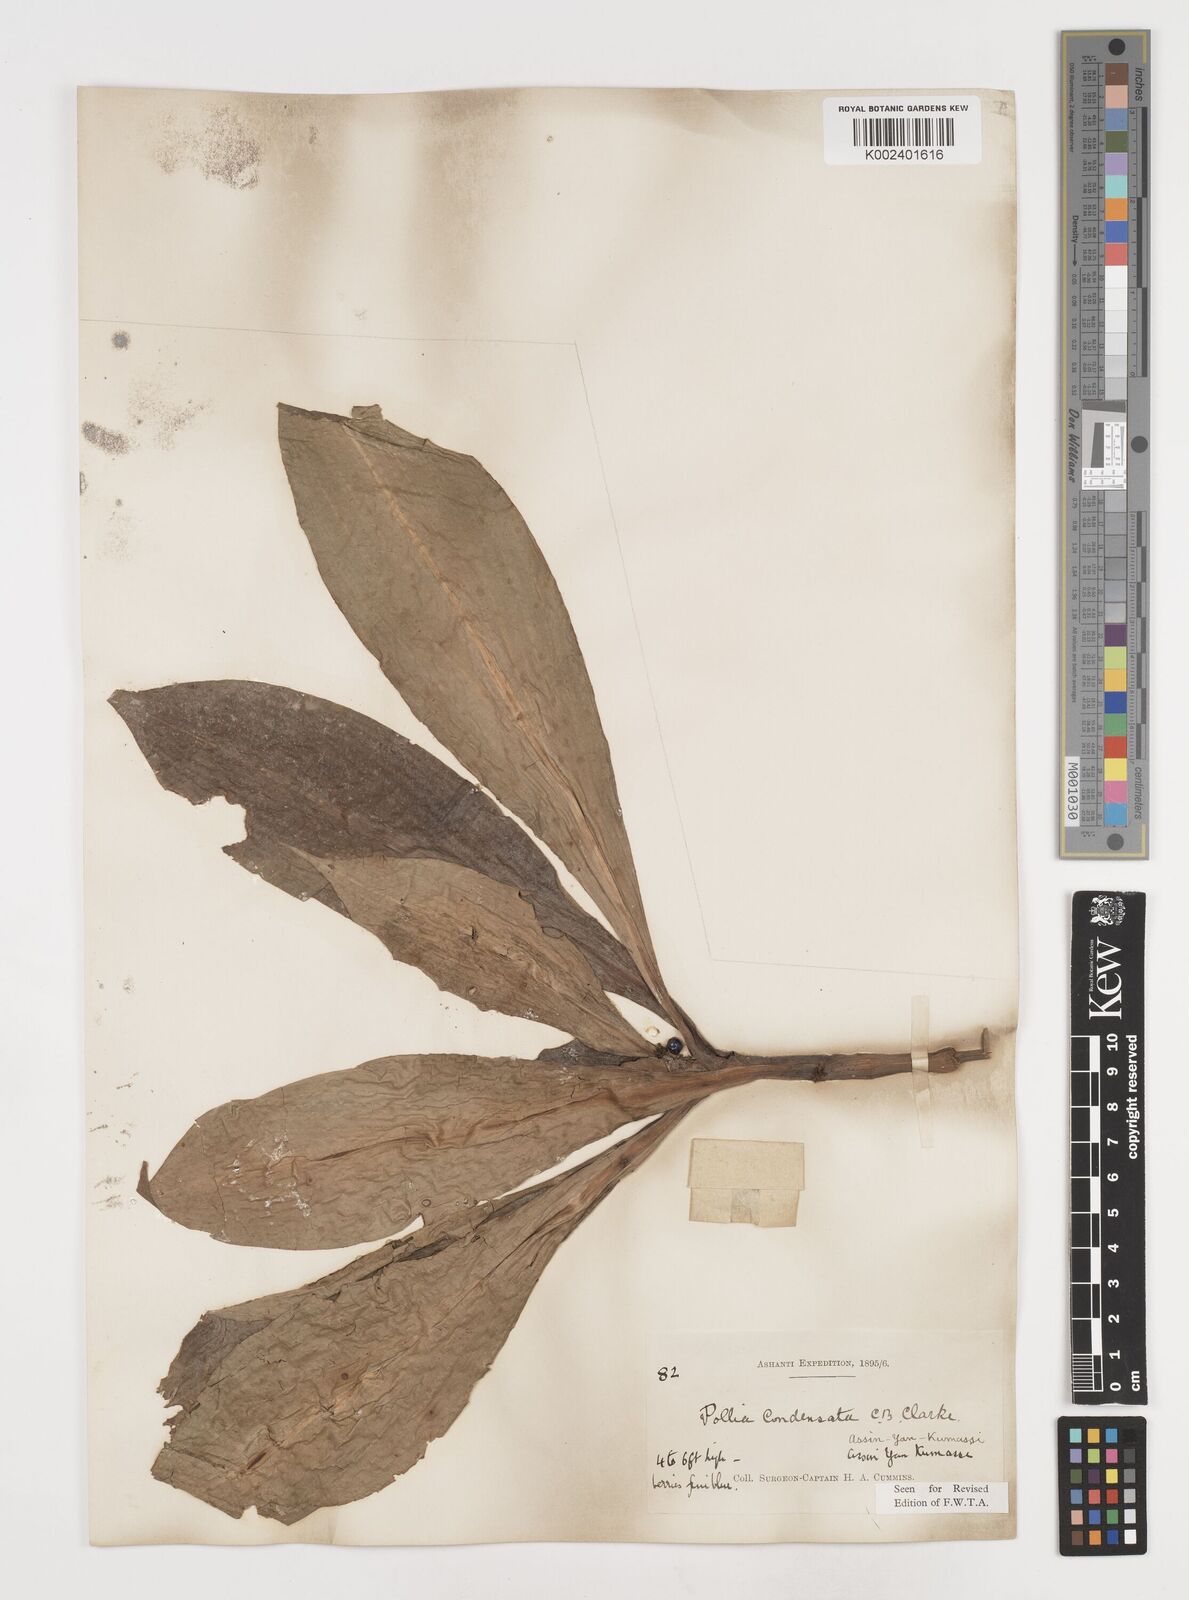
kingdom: Plantae
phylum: Tracheophyta
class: Liliopsida
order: Commelinales
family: Commelinaceae
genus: Pollia
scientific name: Pollia condensata
